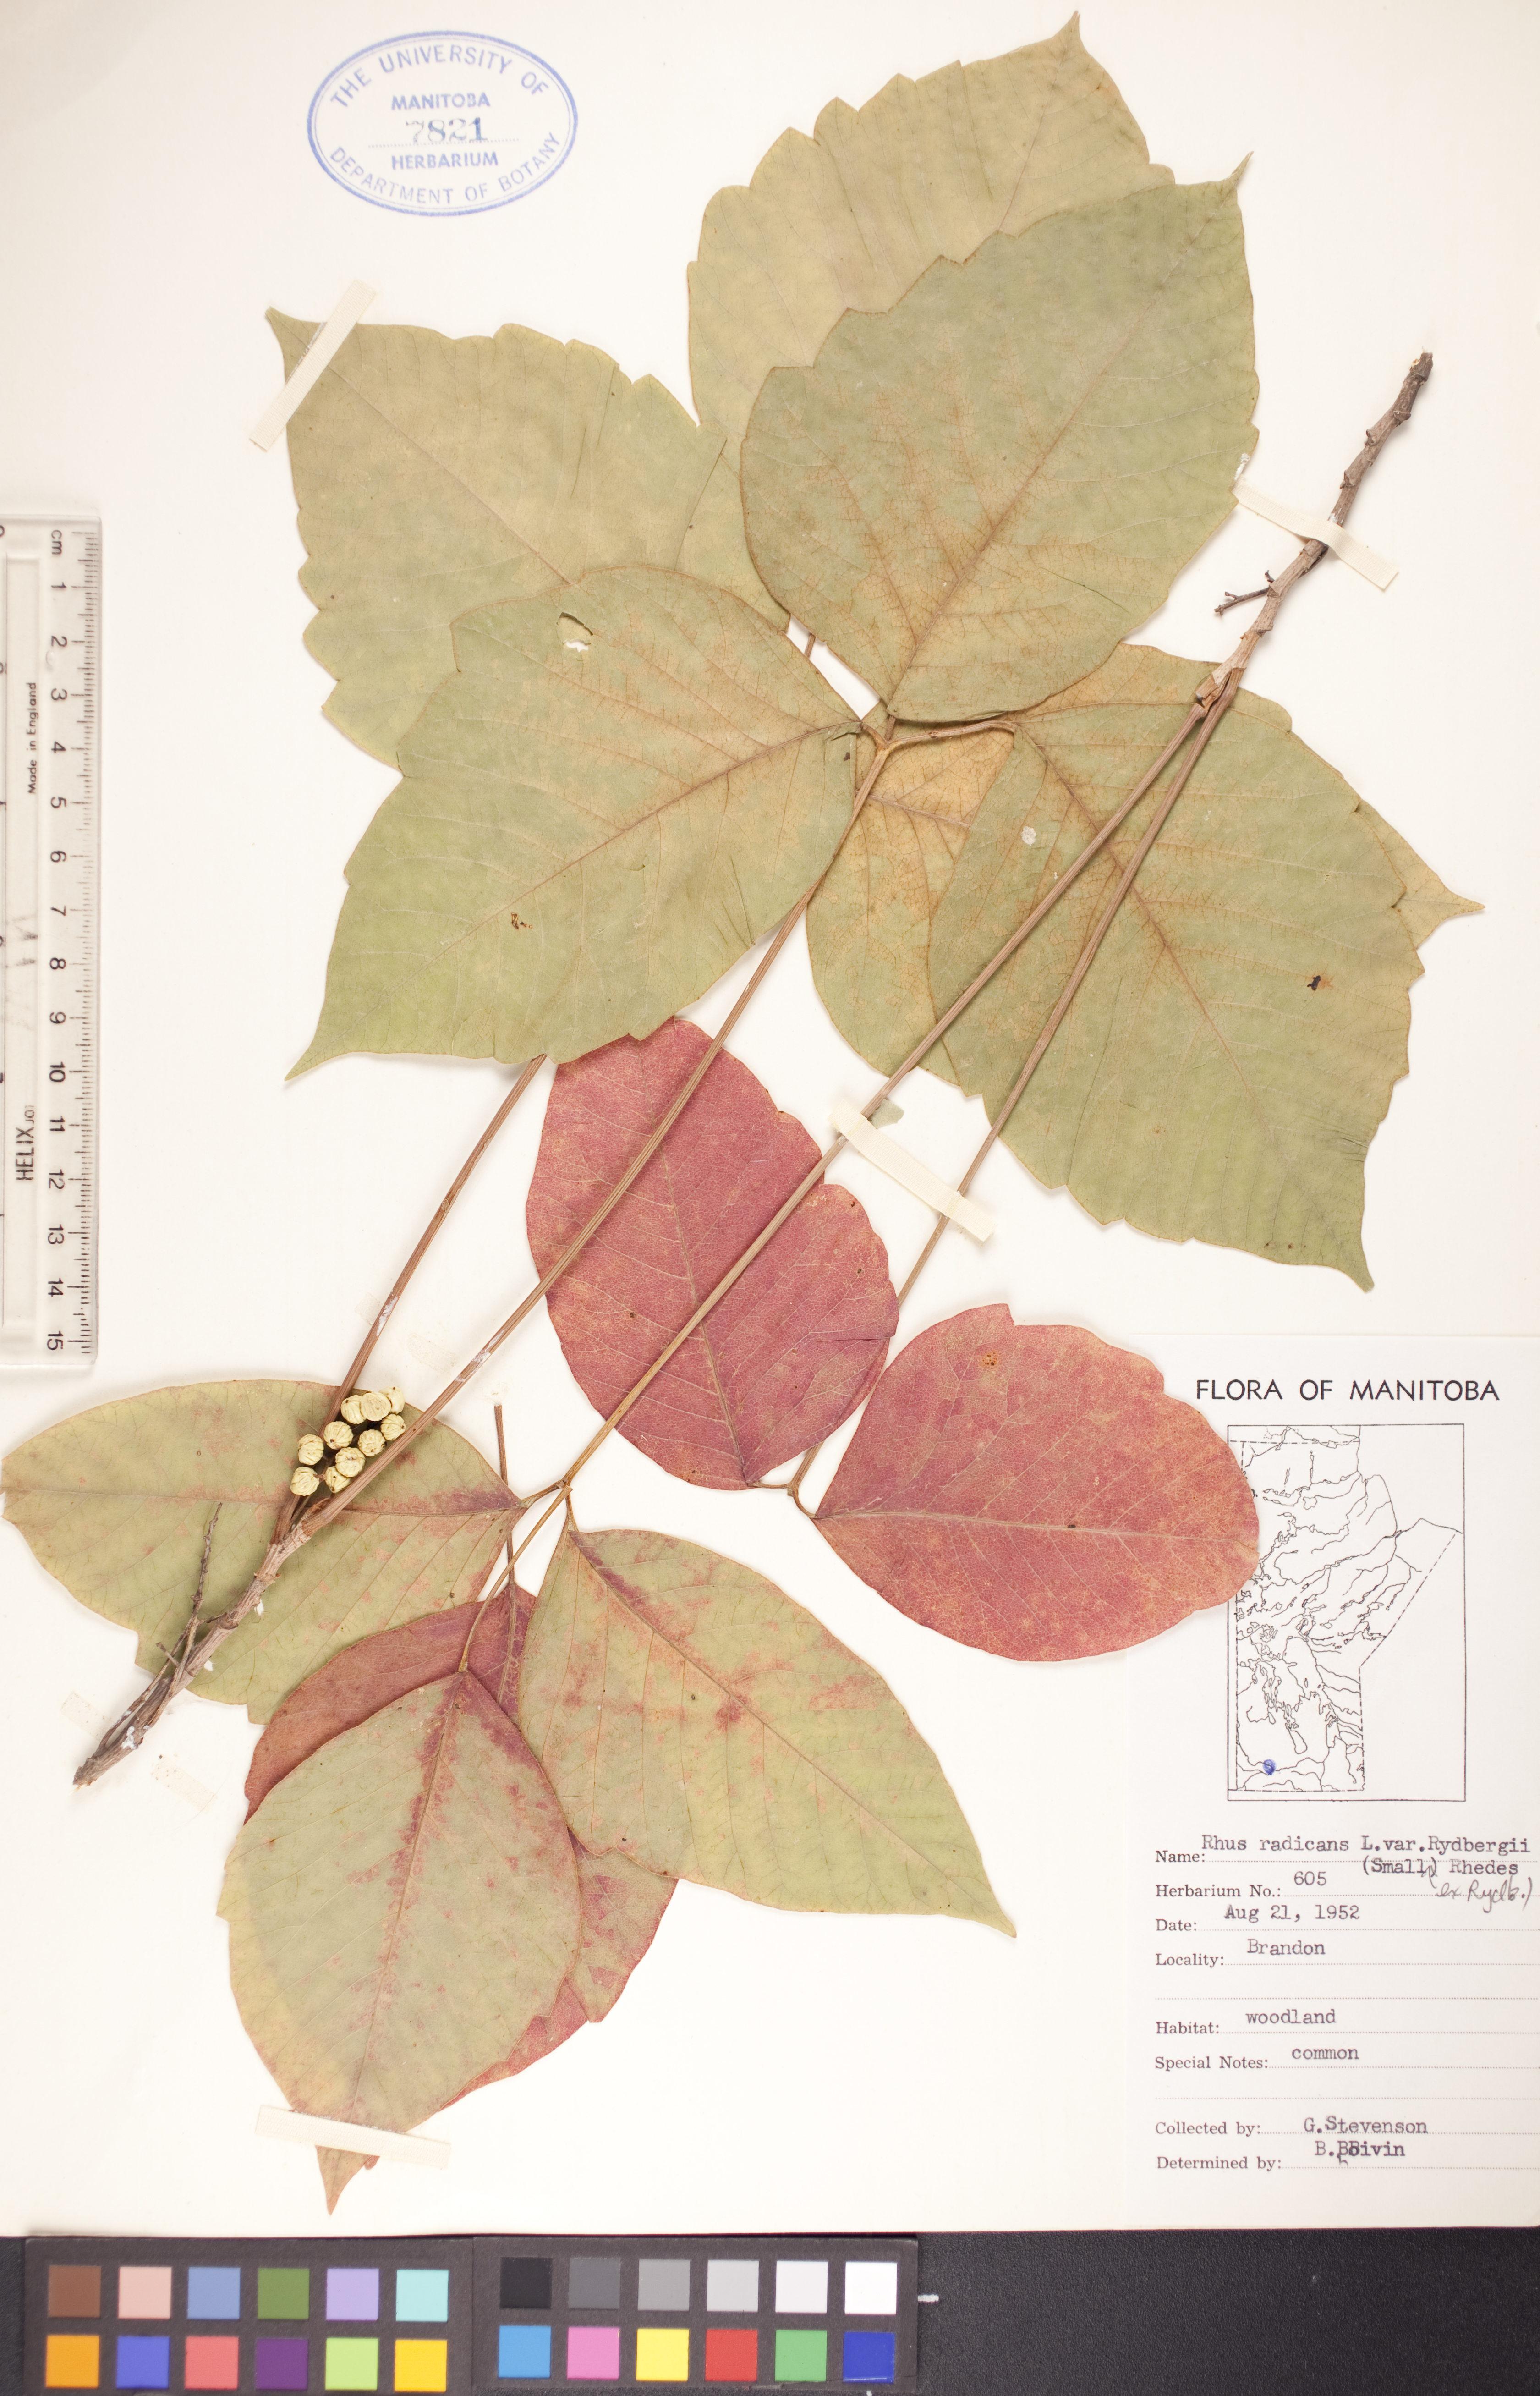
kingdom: Plantae
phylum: Tracheophyta
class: Magnoliopsida
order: Sapindales
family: Anacardiaceae
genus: Toxicodendron
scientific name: Toxicodendron rydbergii
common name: Rydberg's poison-ivy
